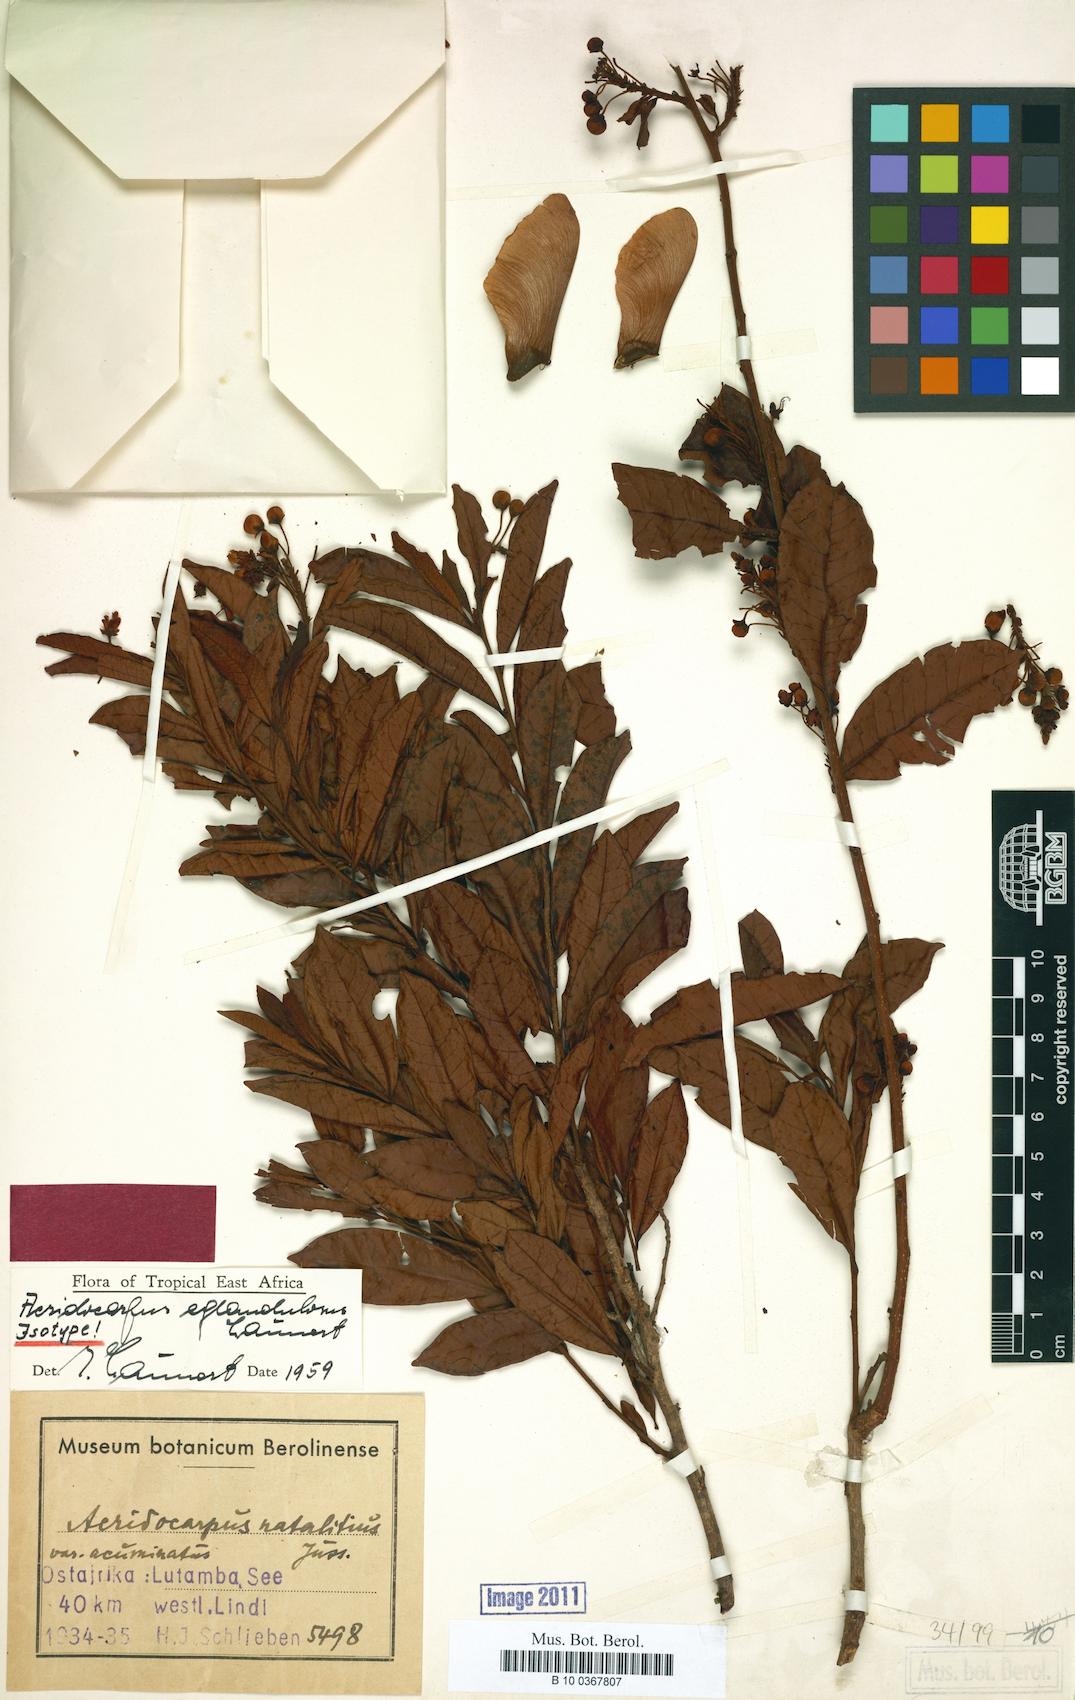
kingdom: Plantae
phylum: Tracheophyta
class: Magnoliopsida
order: Malpighiales
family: Malpighiaceae
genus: Acridocarpus
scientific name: Acridocarpus
